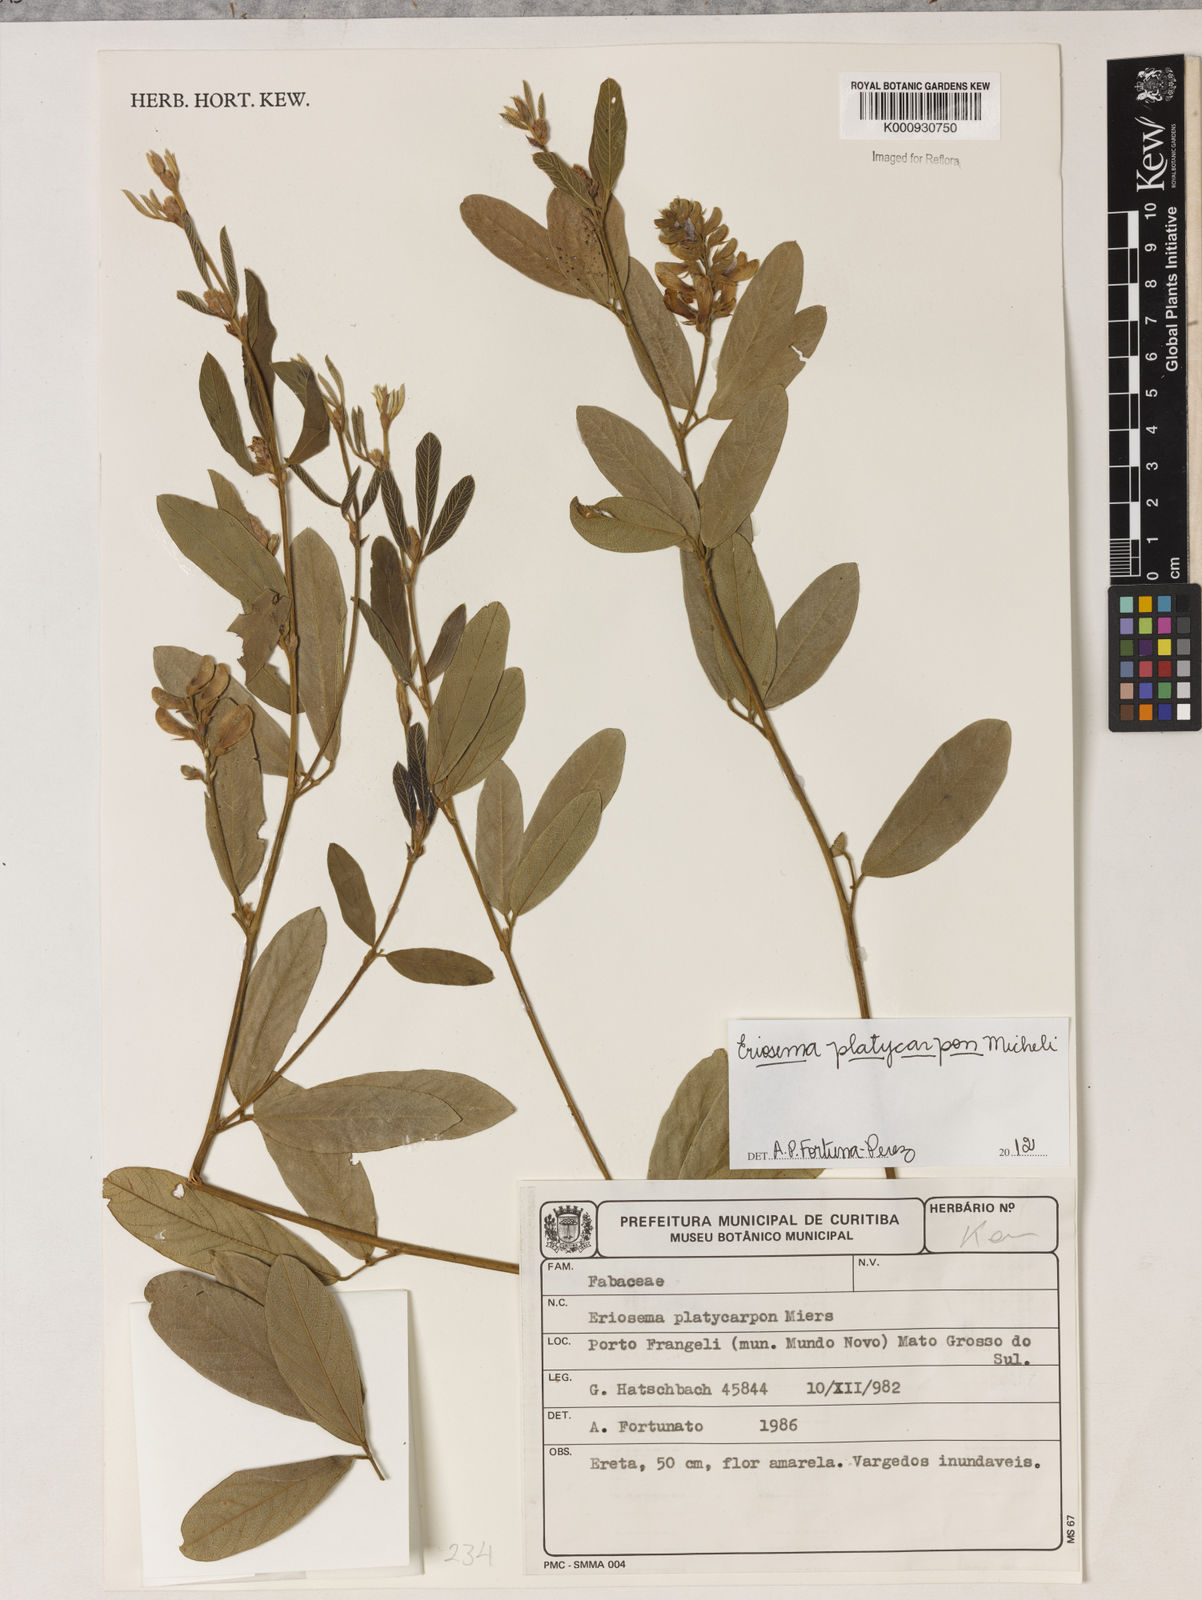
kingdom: Plantae
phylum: Tracheophyta
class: Magnoliopsida
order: Fabales
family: Fabaceae
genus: Eriosema
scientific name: Eriosema platycarpon
